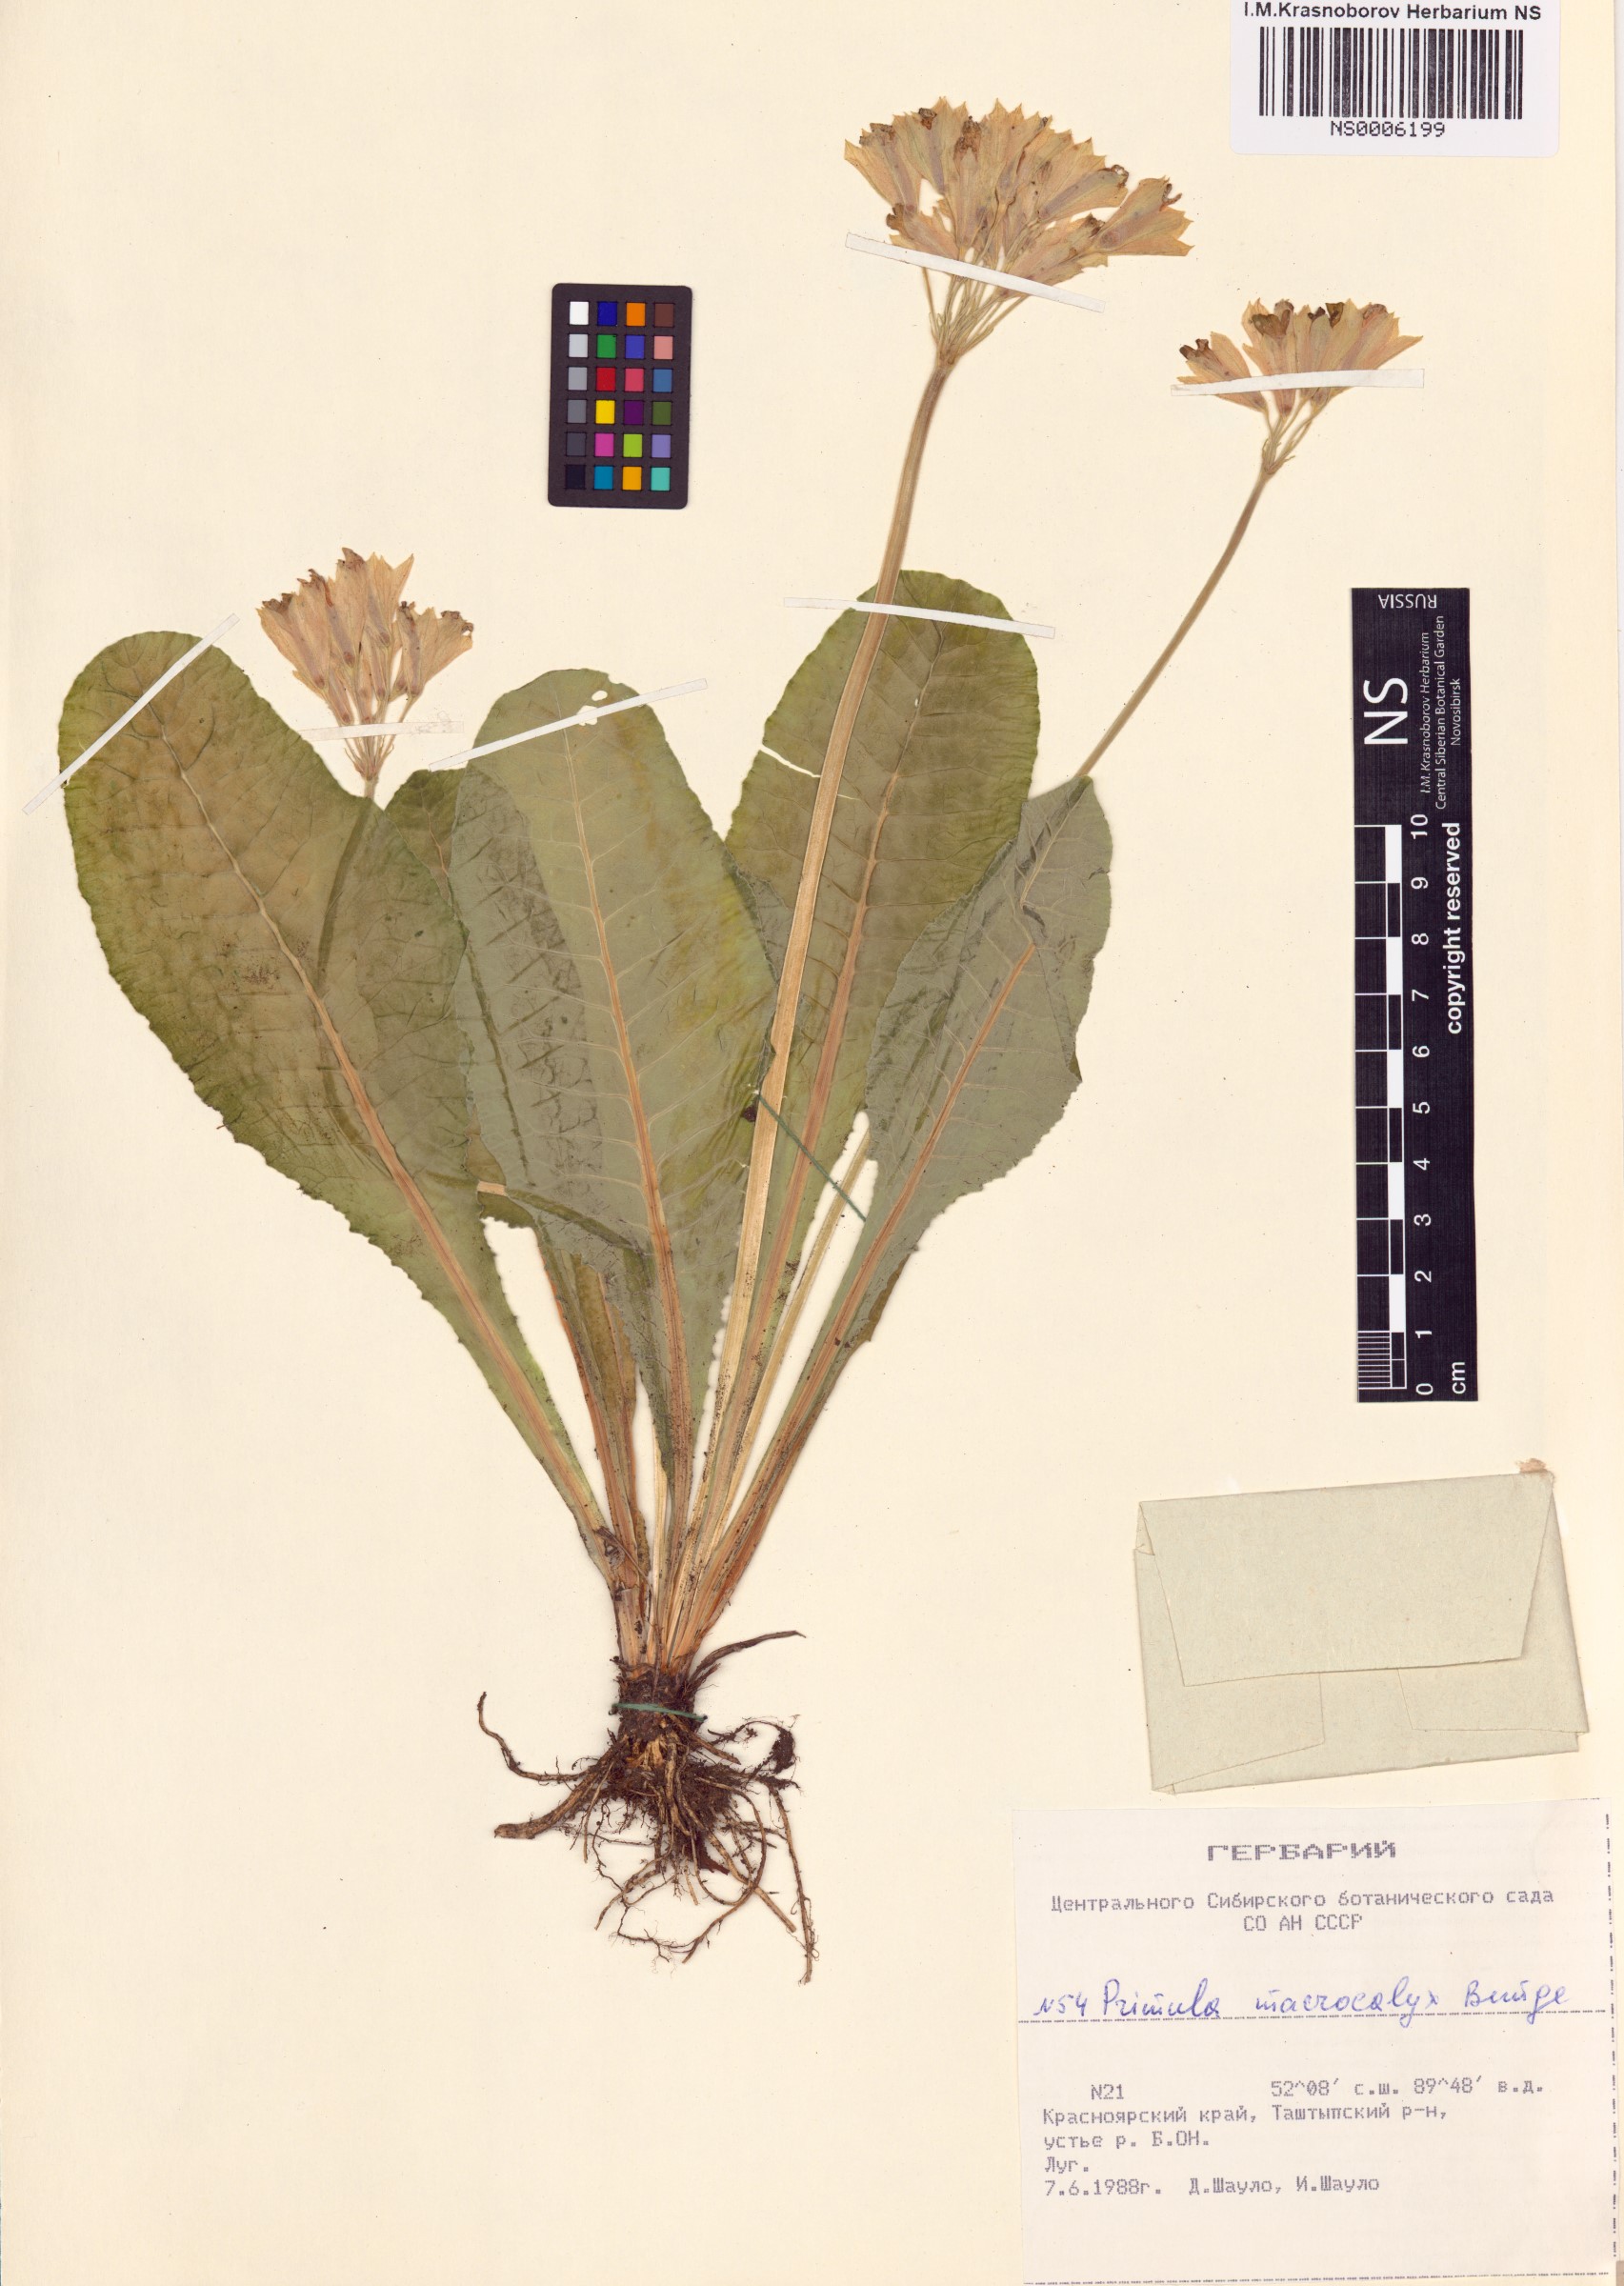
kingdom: Plantae
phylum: Tracheophyta
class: Magnoliopsida
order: Ericales
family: Primulaceae
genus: Primula
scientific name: Primula veris
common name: Cowslip
